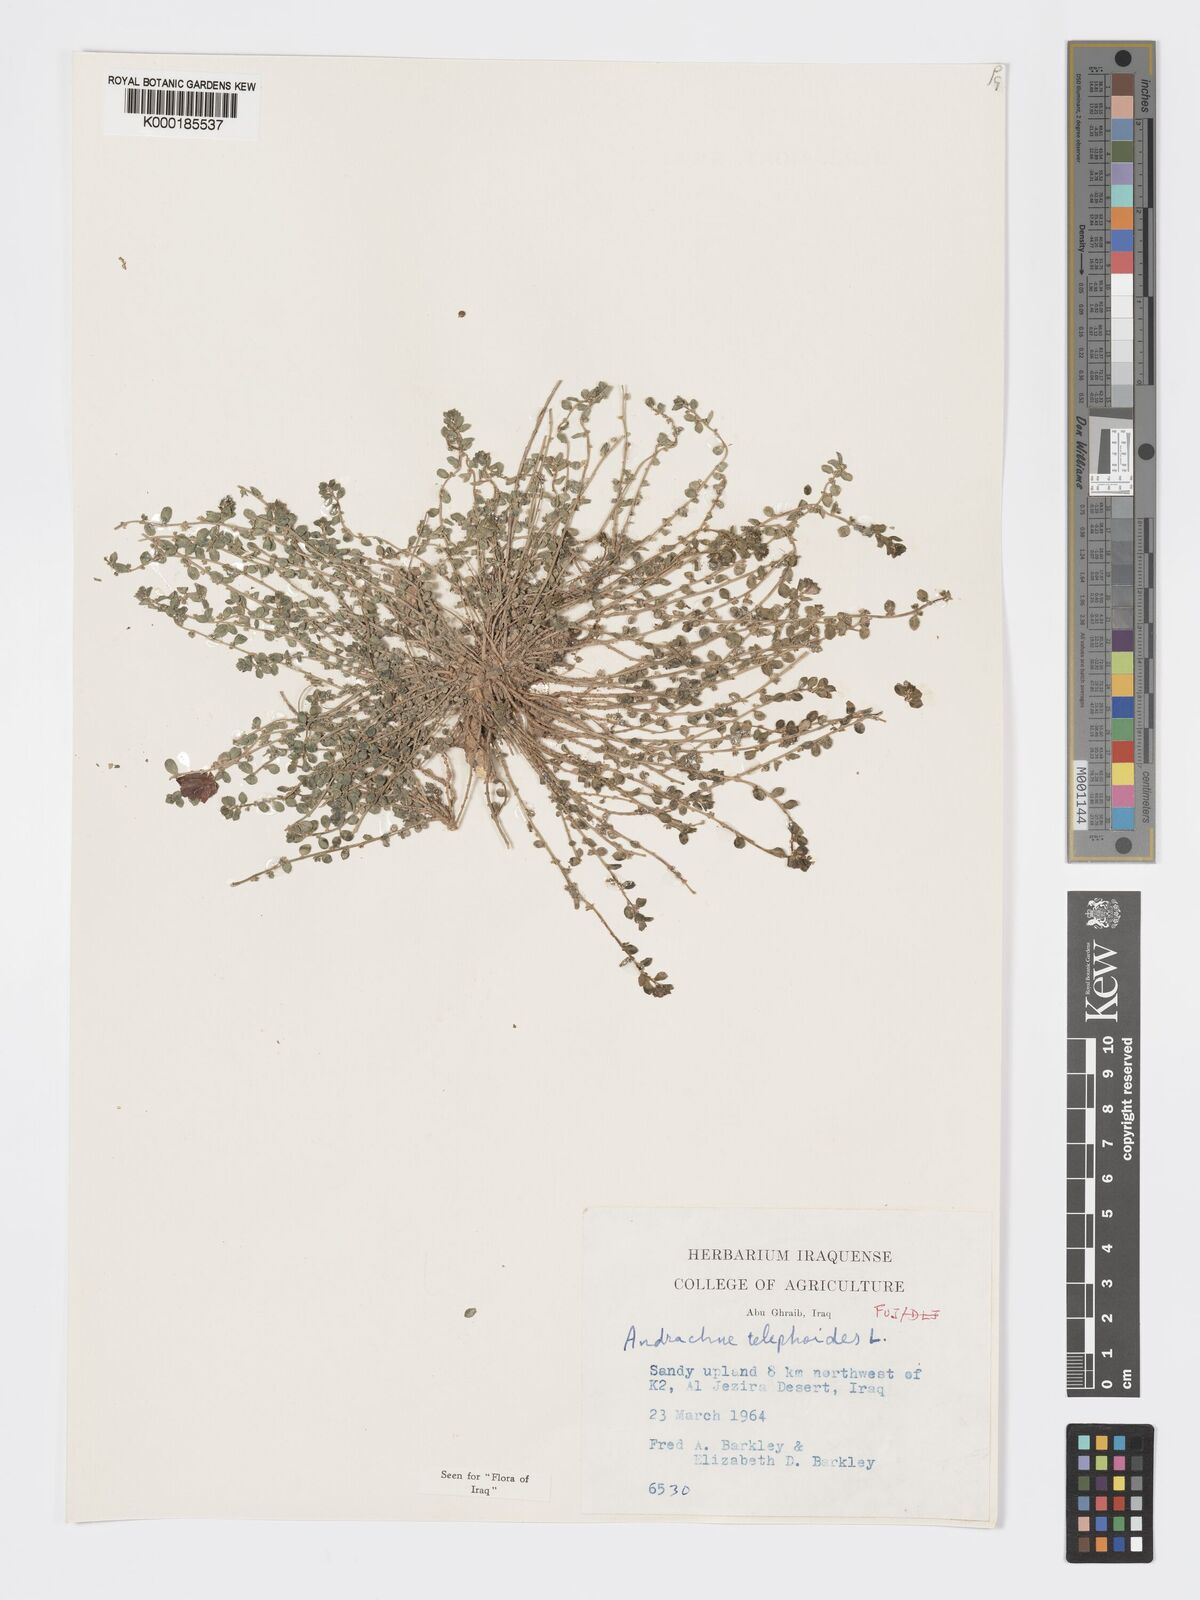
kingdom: Plantae
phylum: Tracheophyta
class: Magnoliopsida
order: Malpighiales
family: Phyllanthaceae
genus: Andrachne
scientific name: Andrachne telephioides
